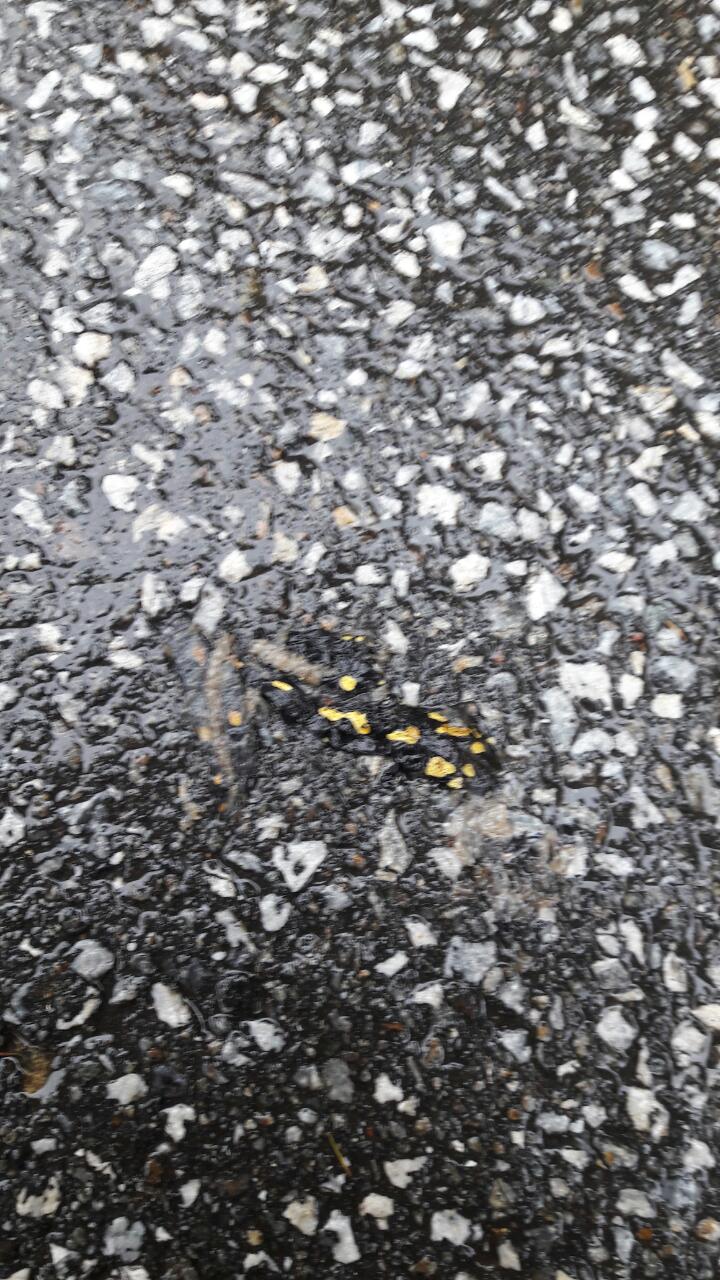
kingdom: Animalia
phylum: Chordata
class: Amphibia
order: Caudata
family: Salamandridae
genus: Salamandra
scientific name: Salamandra salamandra
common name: Fire salamander
